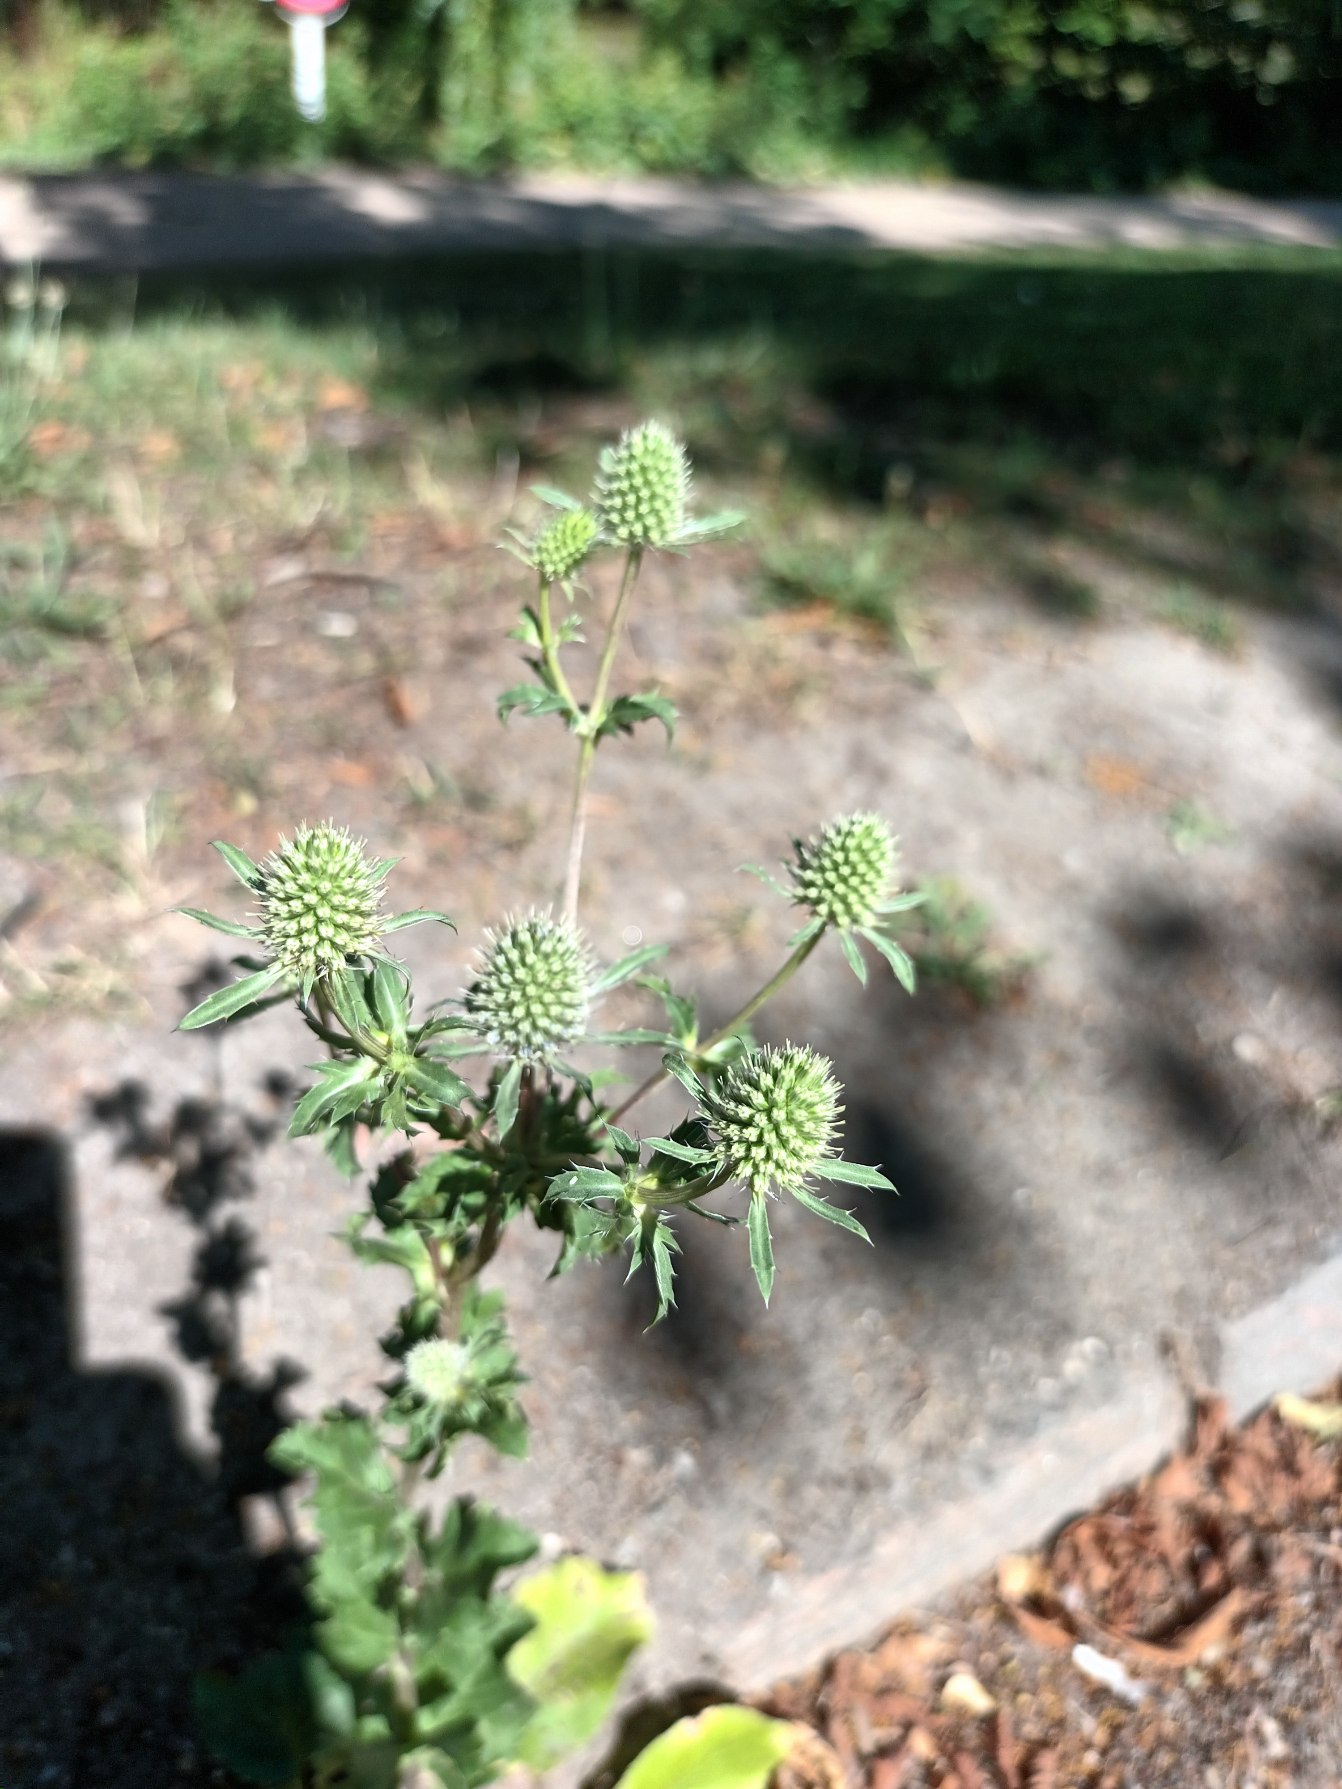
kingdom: Plantae
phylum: Tracheophyta
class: Magnoliopsida
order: Apiales
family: Apiaceae
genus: Eryngium
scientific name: Eryngium planum
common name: Russisk mandstro
